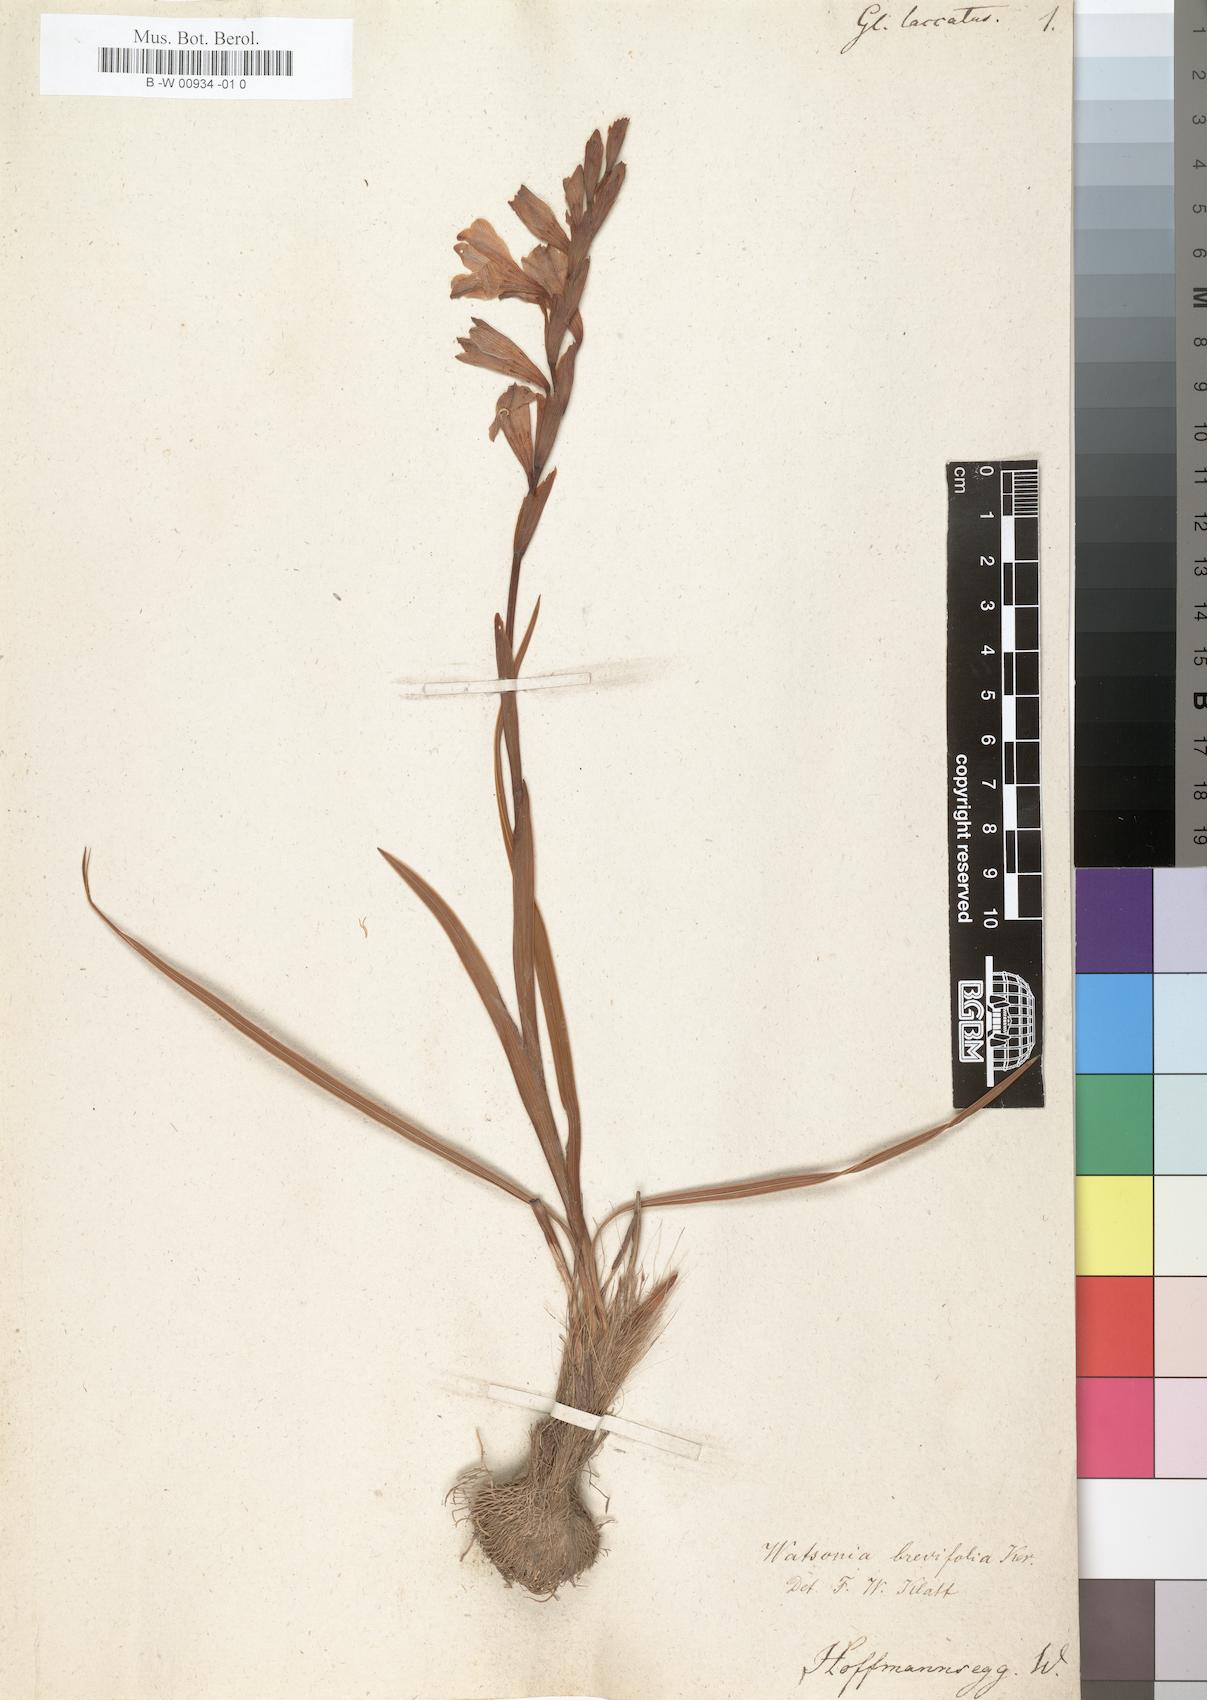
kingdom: Plantae
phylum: Tracheophyta
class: Liliopsida
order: Asparagales
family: Iridaceae
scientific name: Iridaceae
